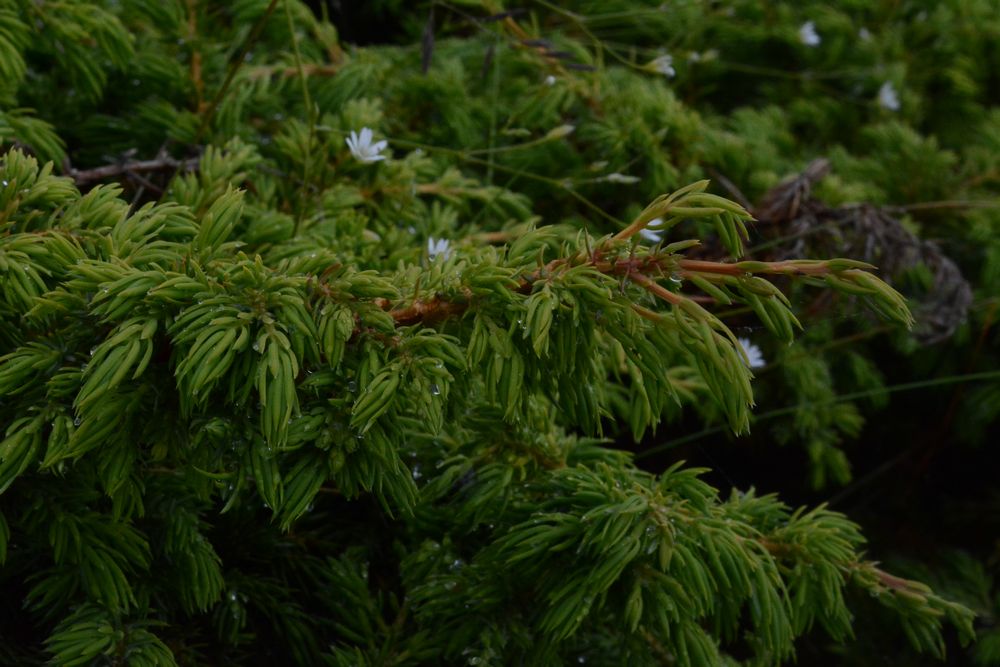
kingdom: Plantae
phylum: Tracheophyta
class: Pinopsida
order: Pinales
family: Cupressaceae
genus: Juniperus
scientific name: Juniperus communis
